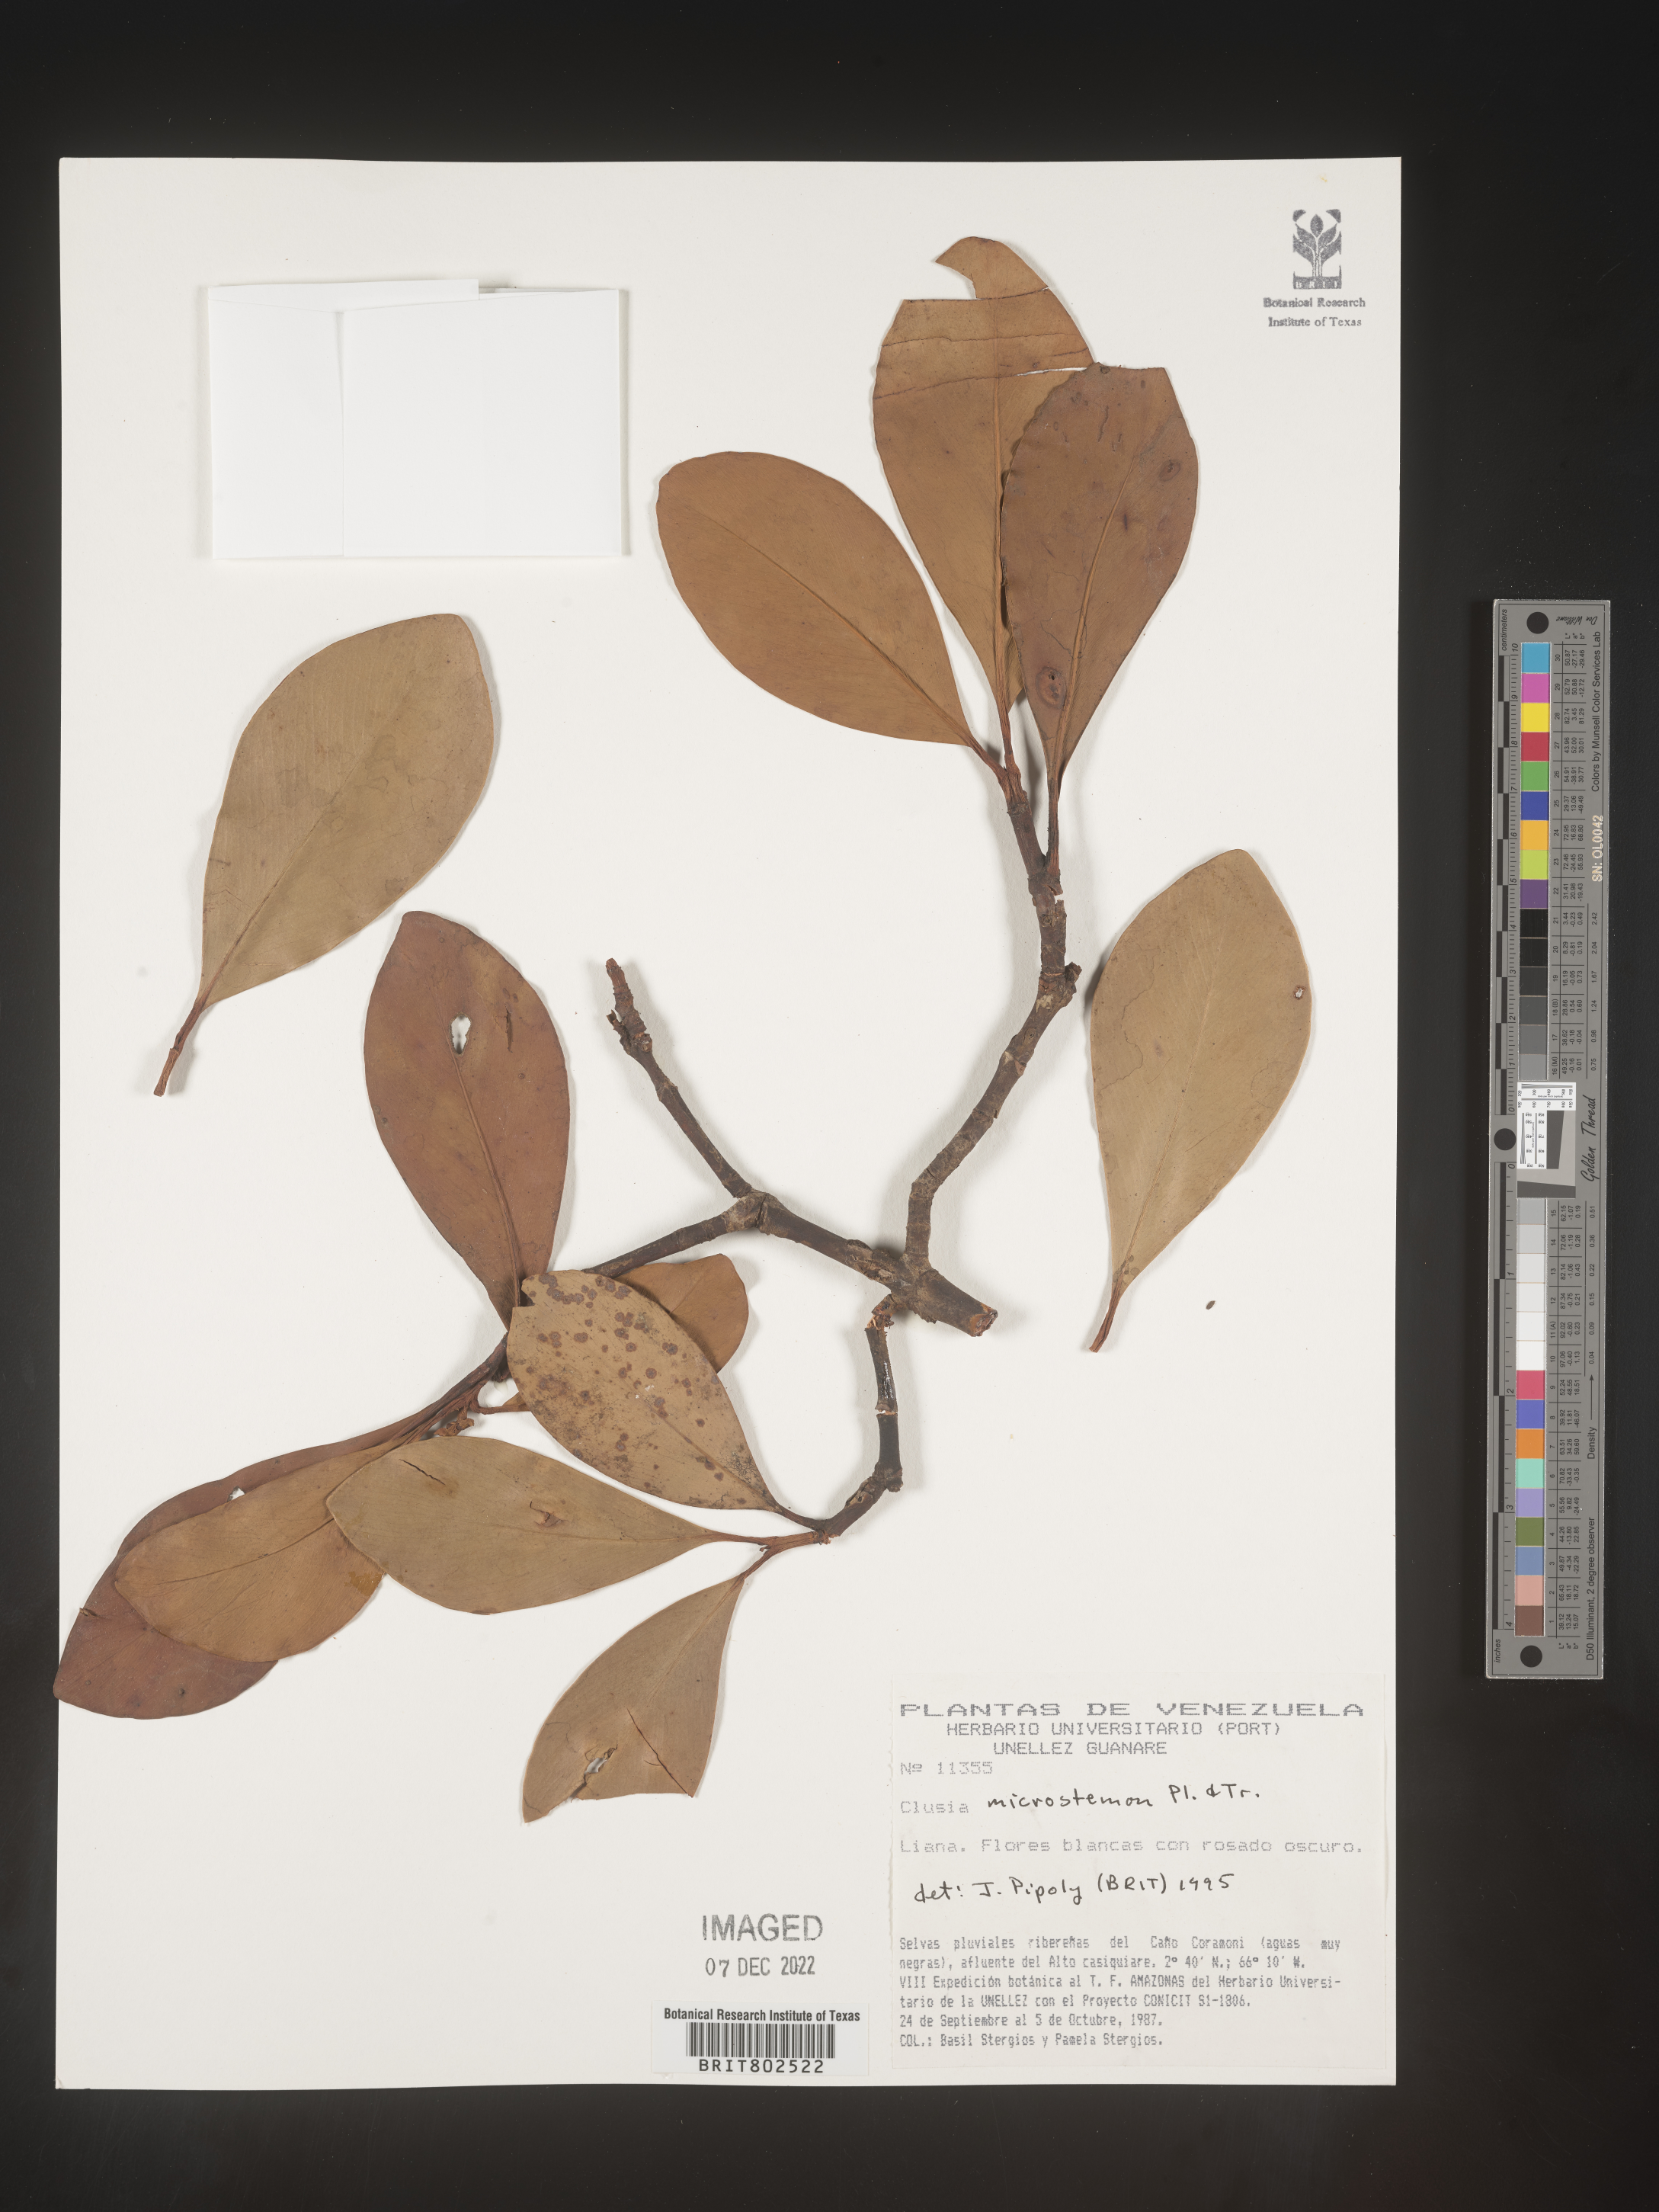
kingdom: Plantae
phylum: Tracheophyta
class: Magnoliopsida
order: Malpighiales
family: Clusiaceae
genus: Clusia
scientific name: Clusia microstemon
